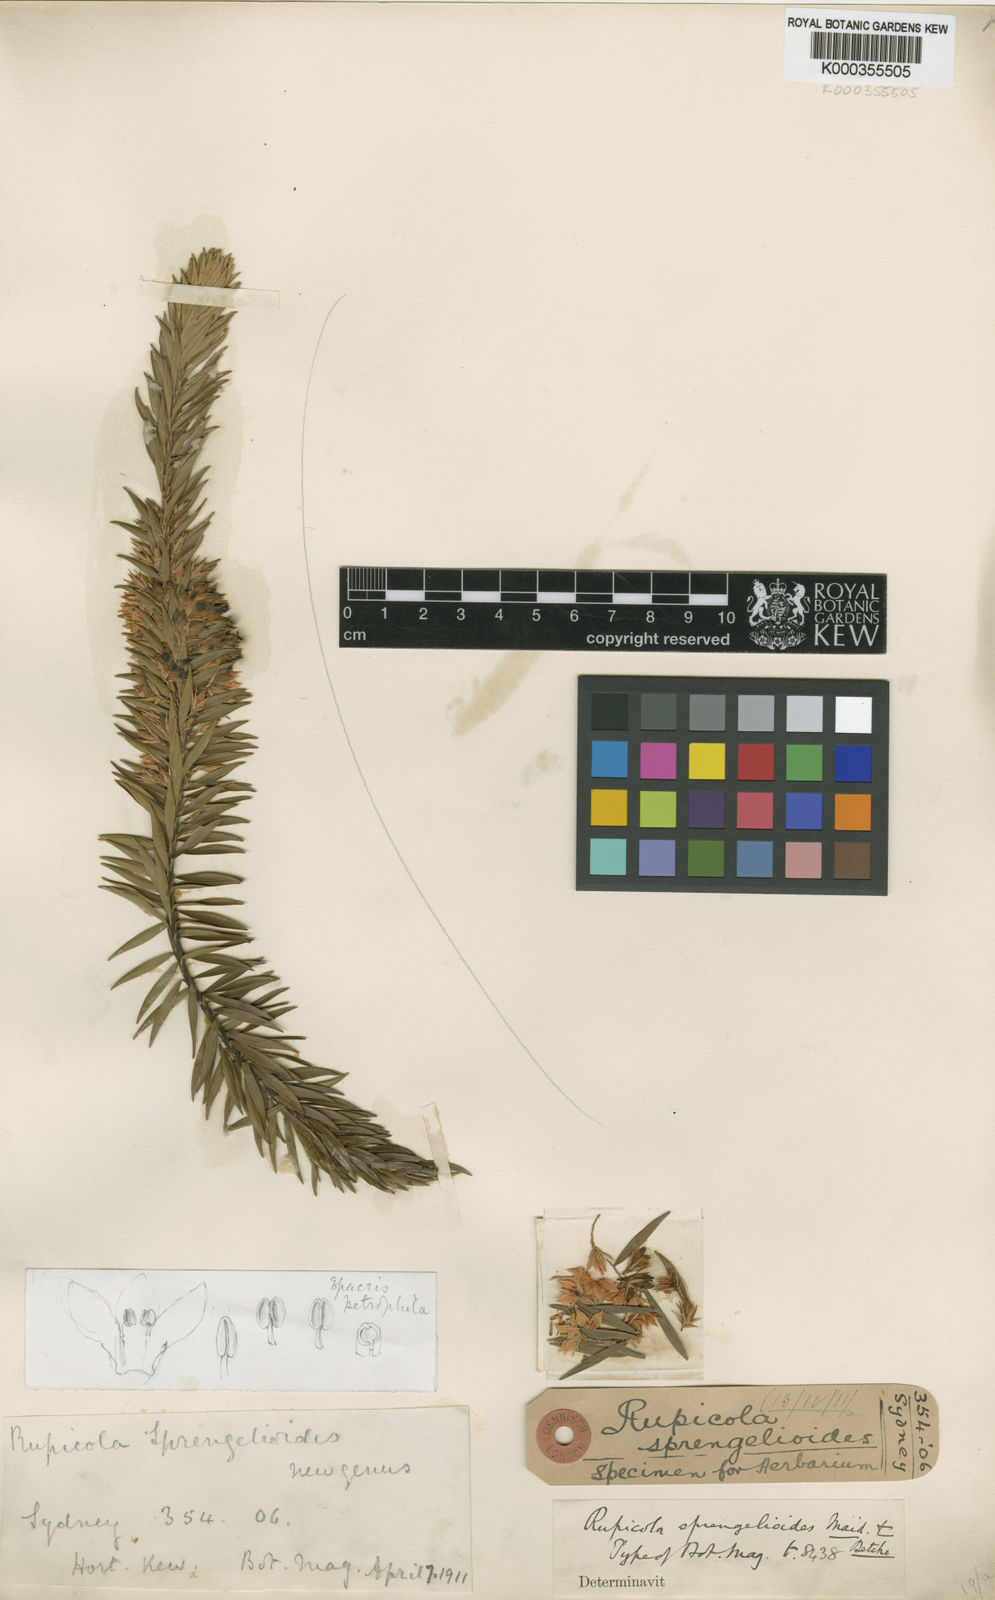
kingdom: Plantae
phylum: Tracheophyta
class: Magnoliopsida
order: Ericales
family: Ericaceae
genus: Epacris
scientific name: Epacris
